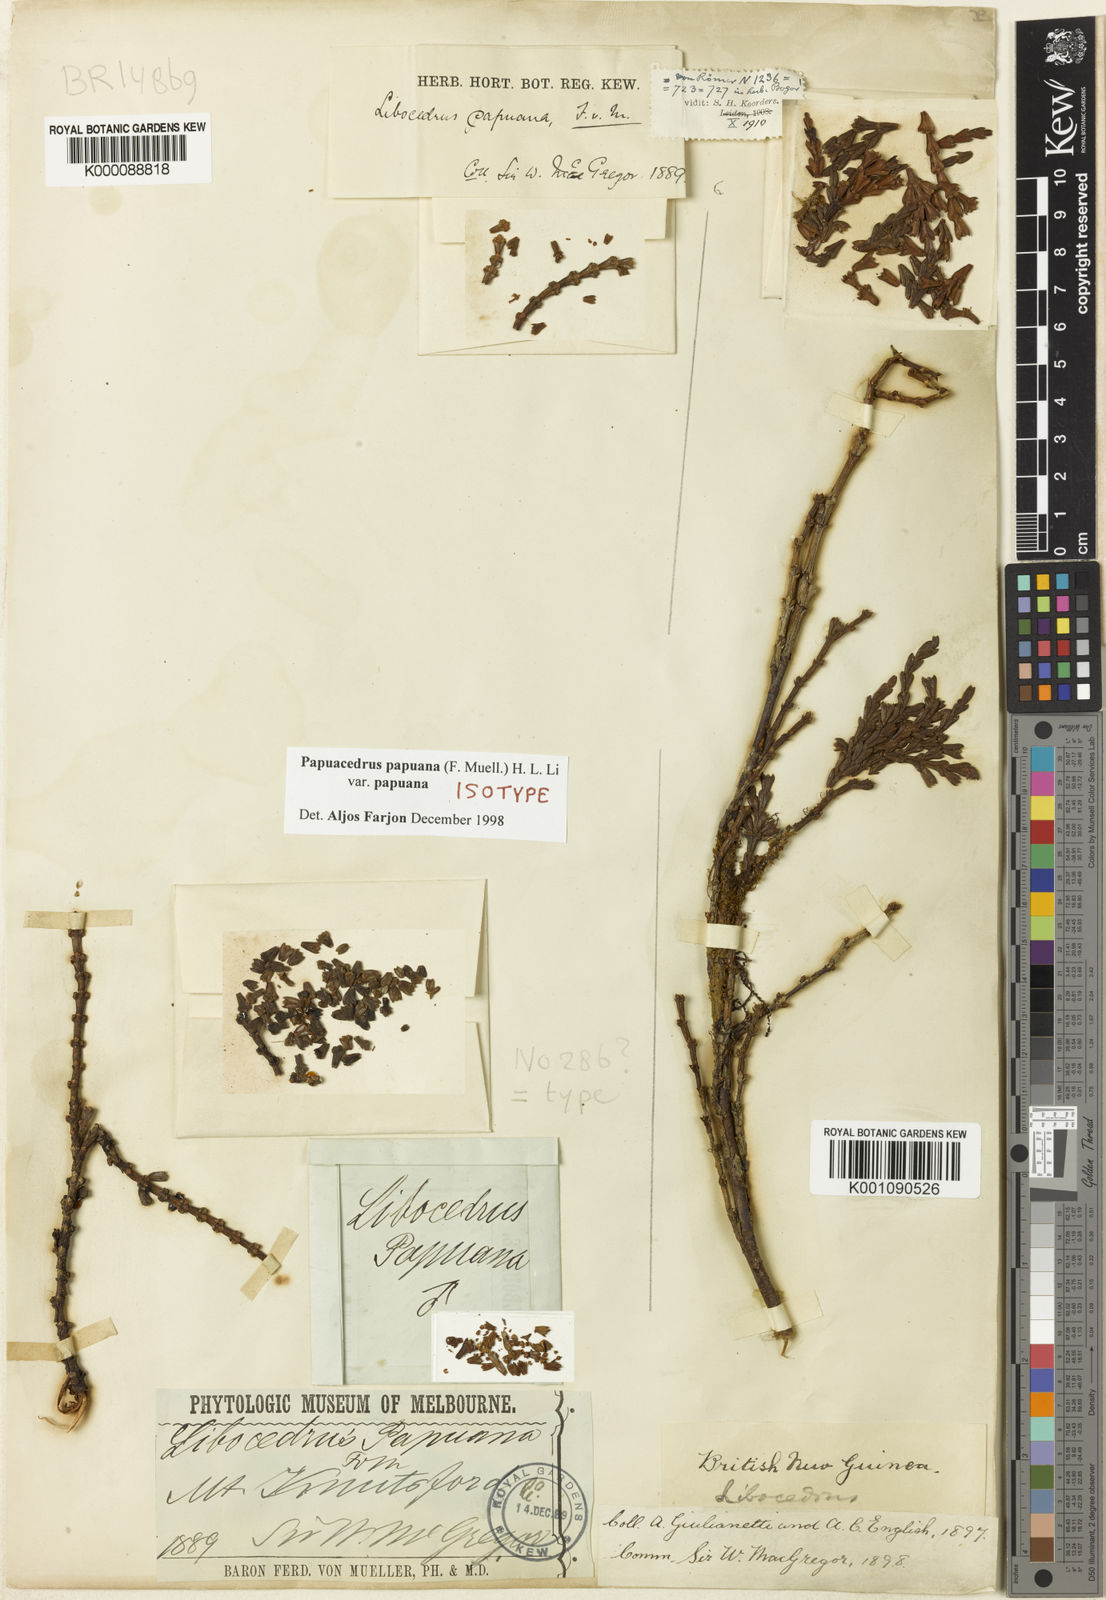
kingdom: Plantae
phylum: Tracheophyta
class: Pinopsida
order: Pinales
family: Cupressaceae
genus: Papuacedrus
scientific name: Papuacedrus papuana
